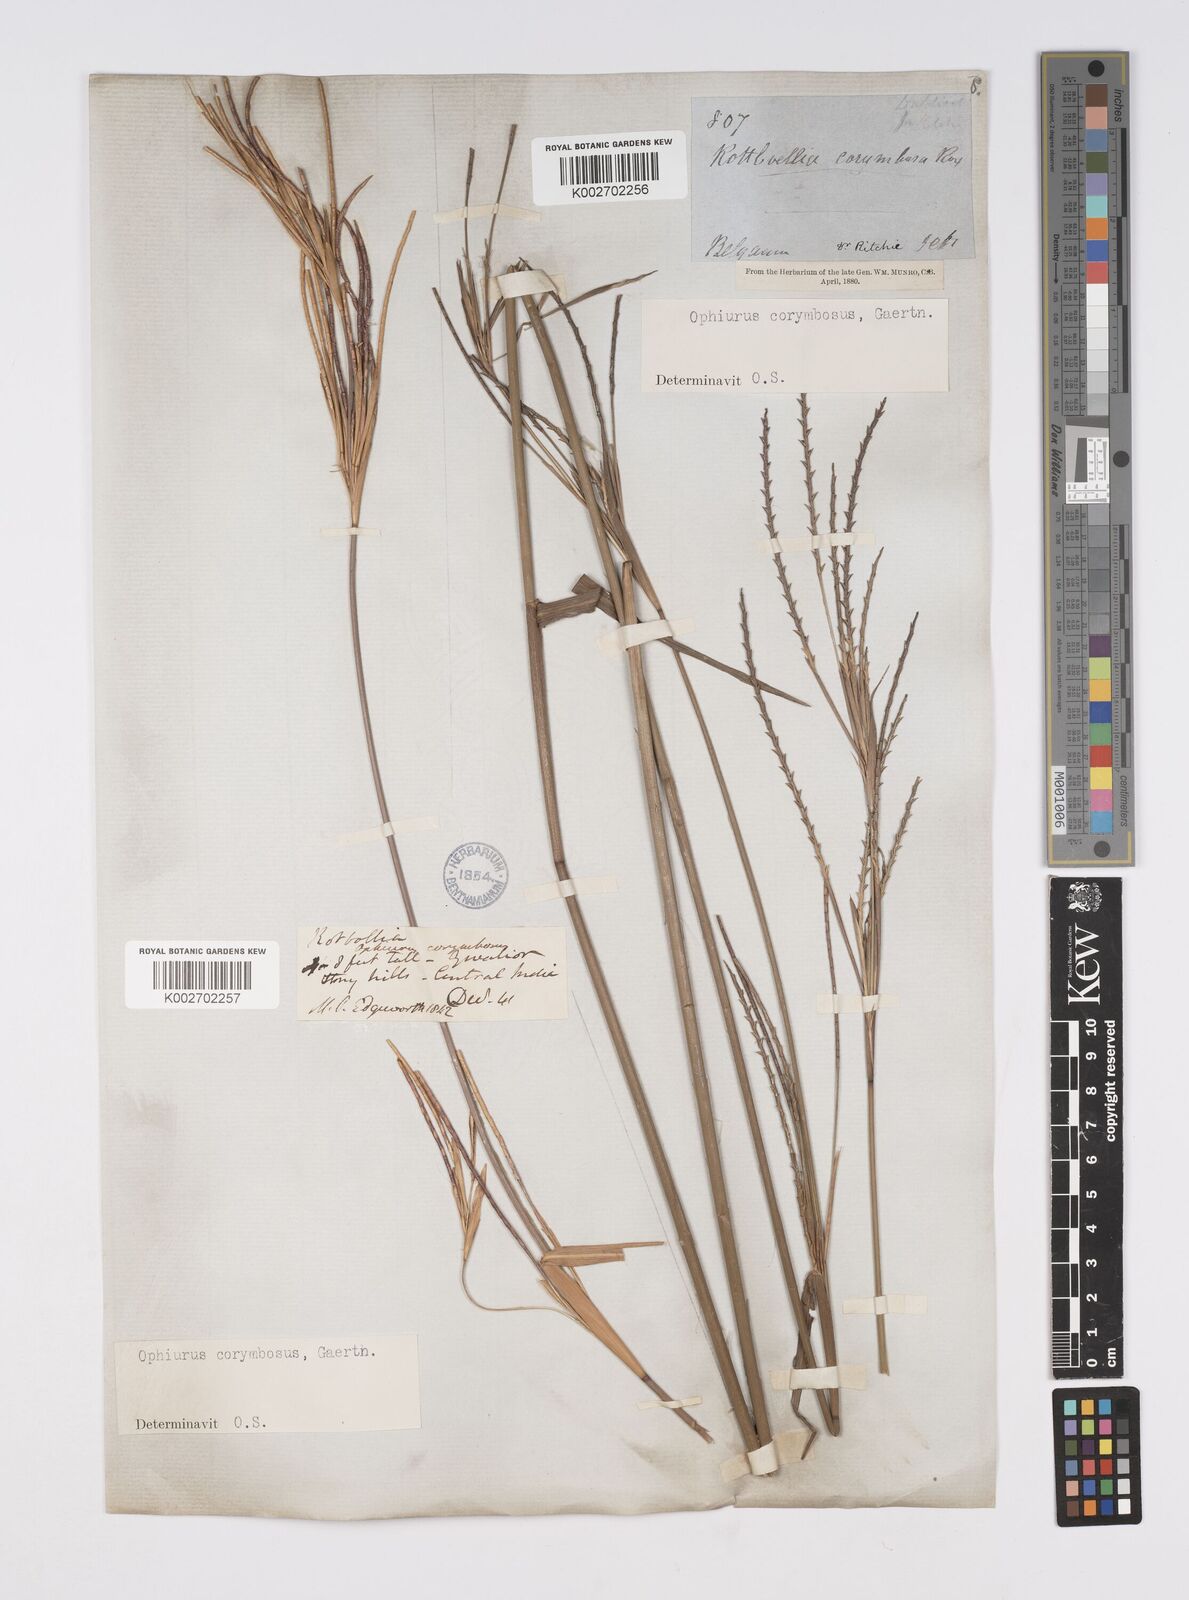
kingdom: Plantae
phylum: Tracheophyta
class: Liliopsida
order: Poales
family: Poaceae
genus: Ophiuros
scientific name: Ophiuros exaltatus
